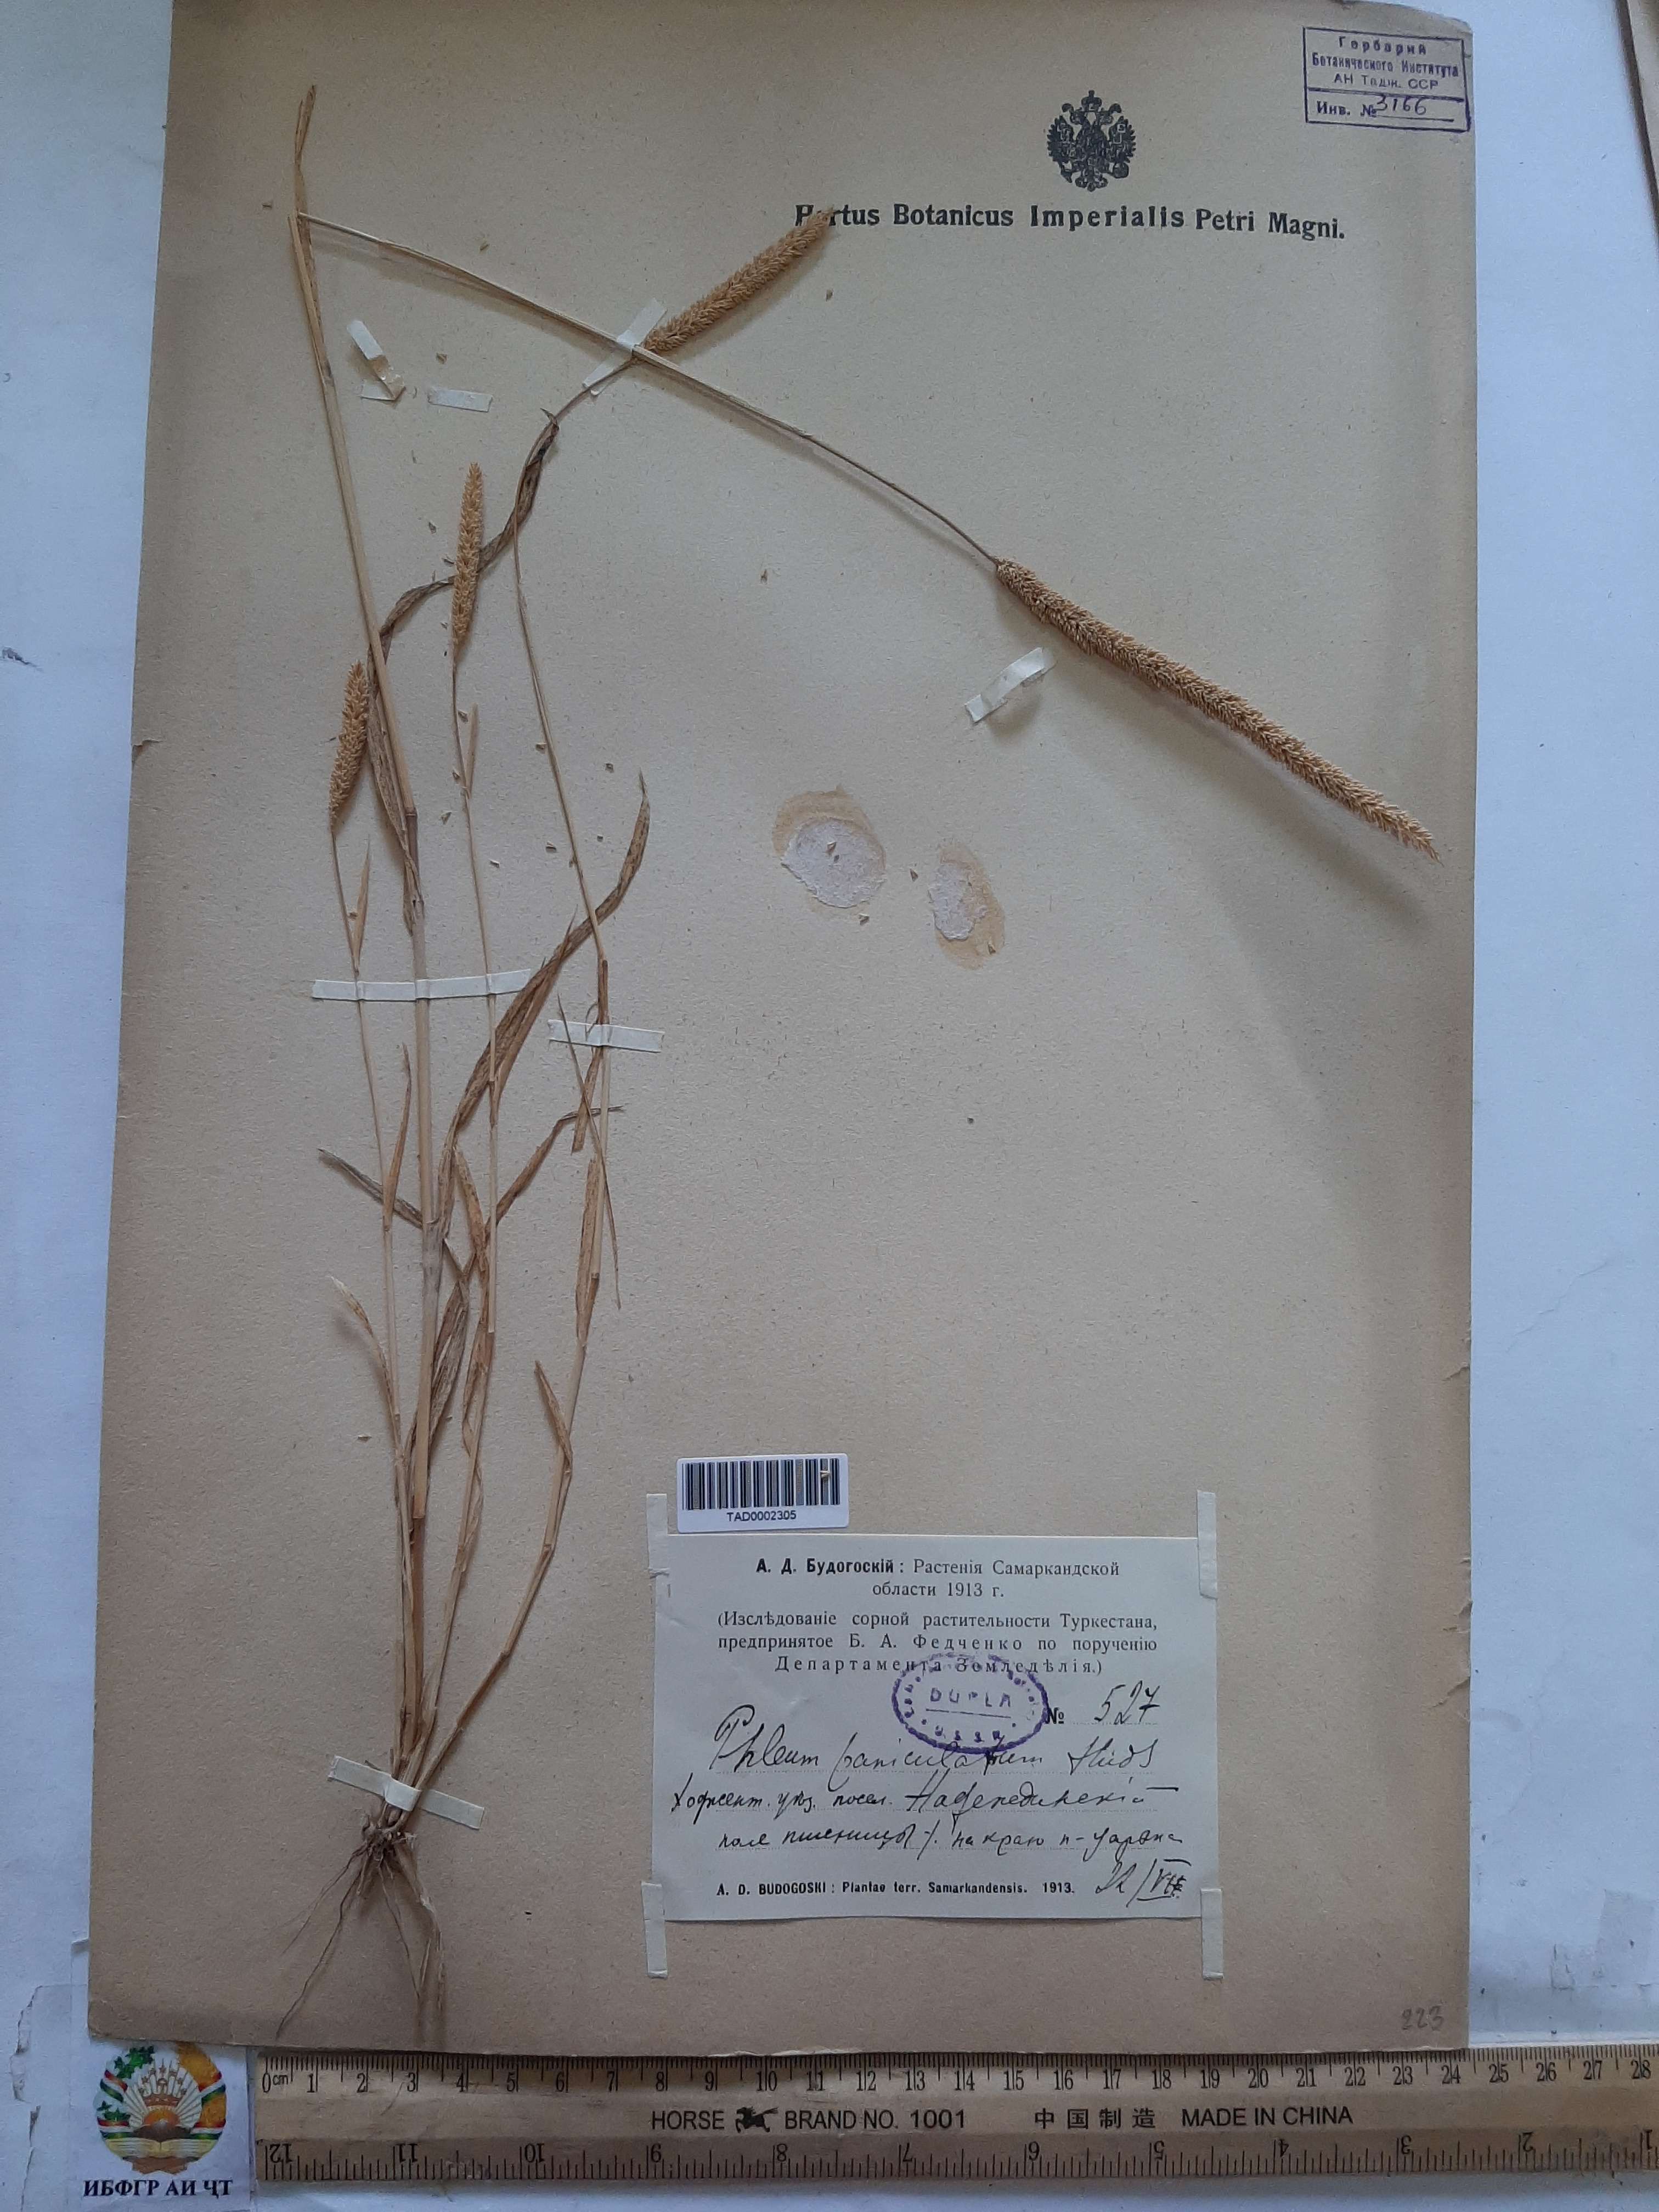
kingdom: Plantae
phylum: Tracheophyta
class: Liliopsida
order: Poales
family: Poaceae
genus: Phleum
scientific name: Phleum paniculatum
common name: British timothy
